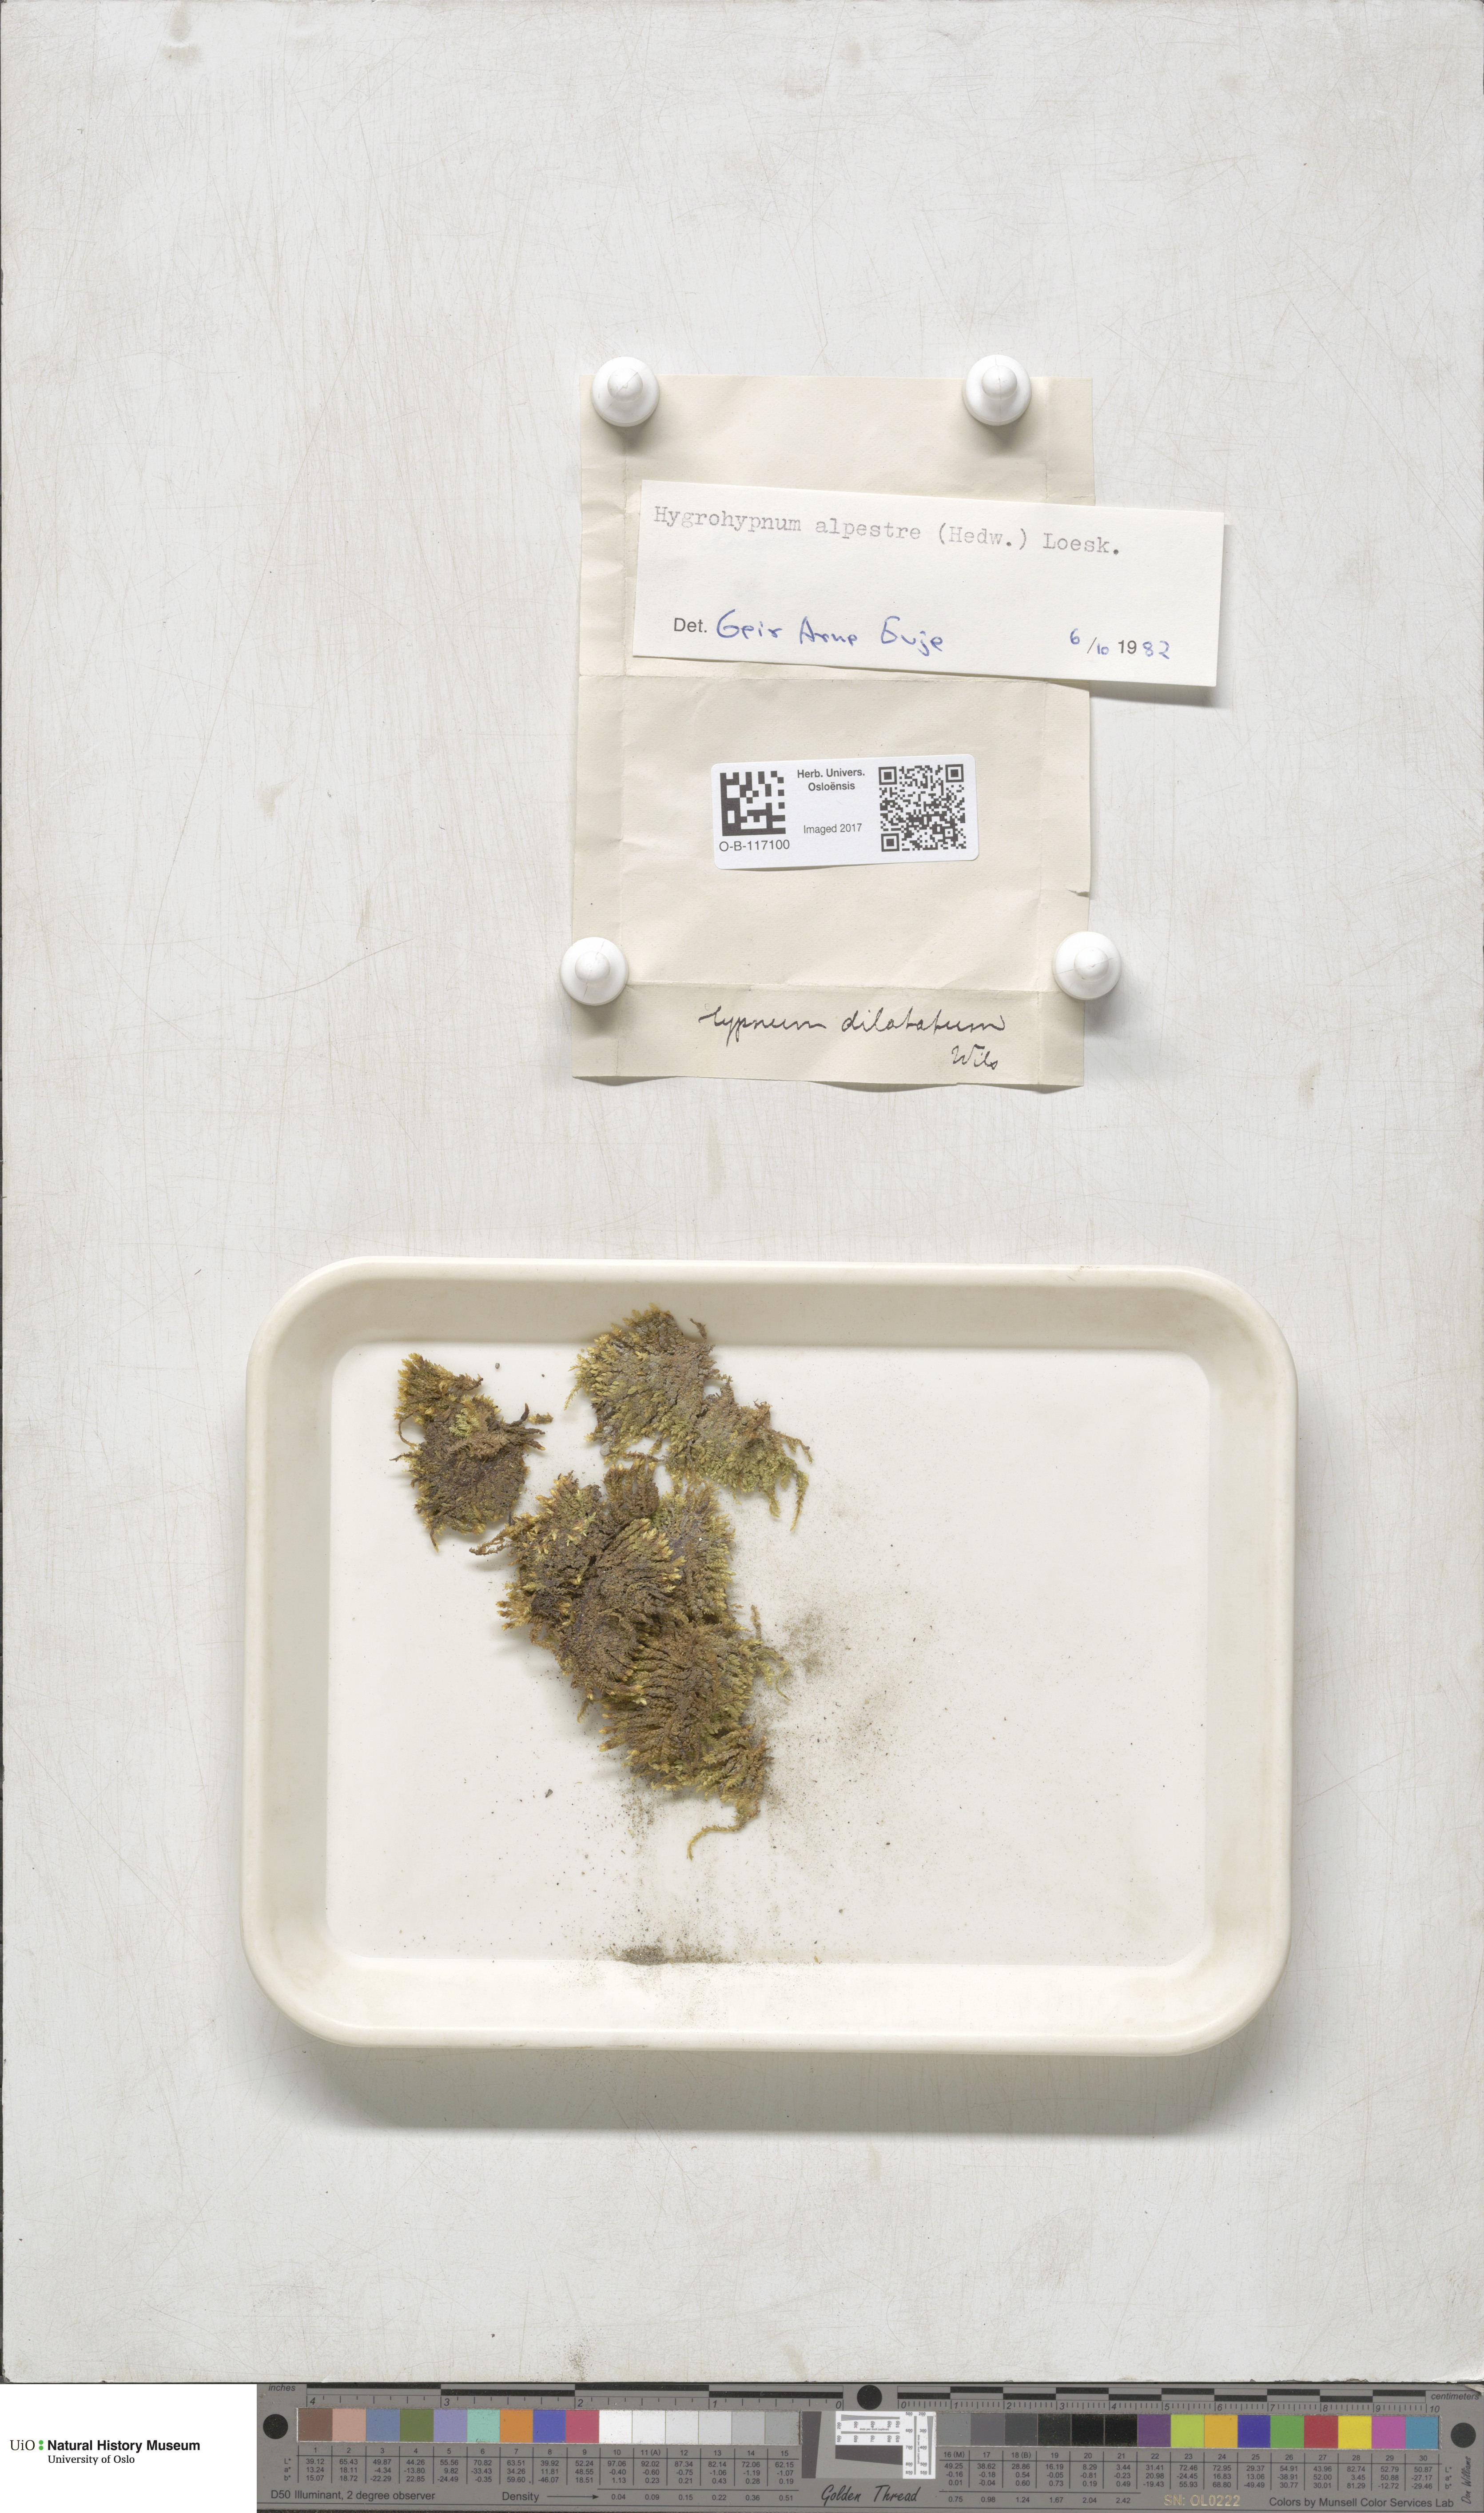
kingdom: Plantae
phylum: Bryophyta
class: Bryopsida
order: Hypnales
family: Amblystegiaceae
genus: Platyhypnum
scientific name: Platyhypnum alpestre
